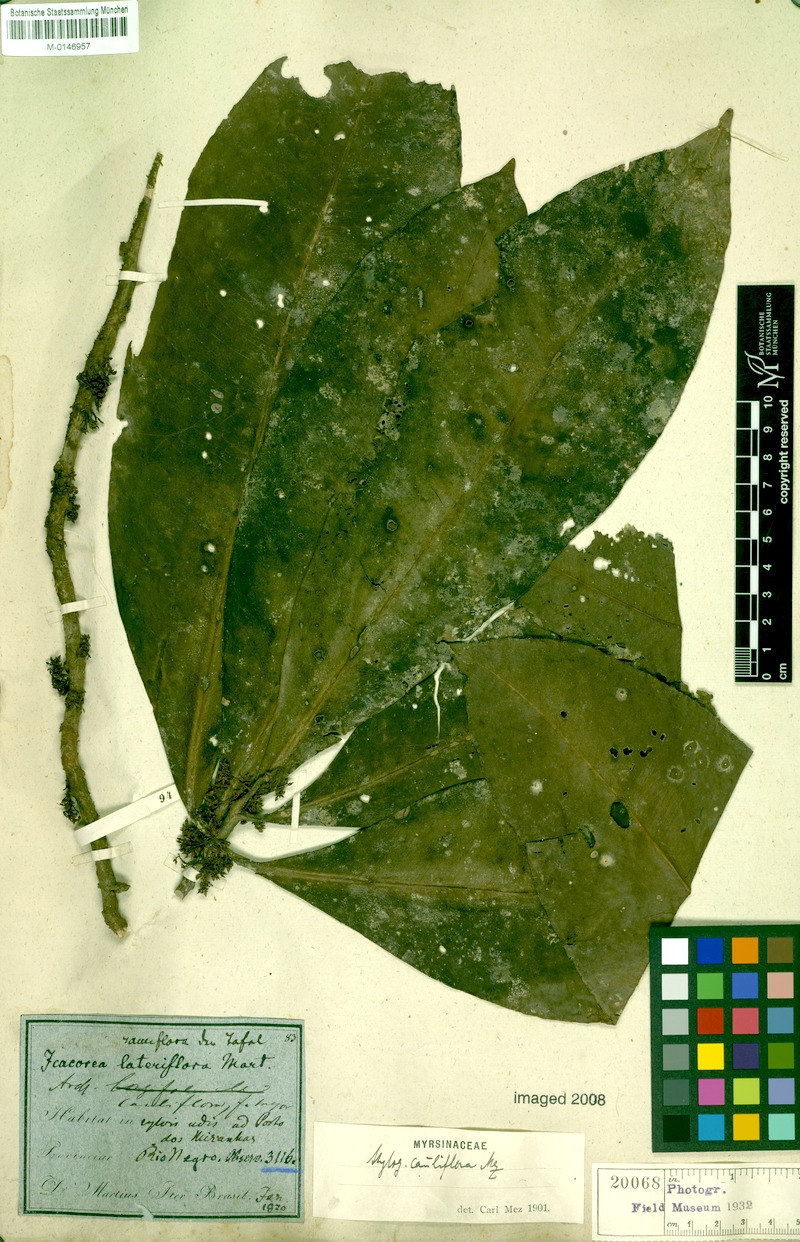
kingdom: Plantae
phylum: Tracheophyta
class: Magnoliopsida
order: Ericales
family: Primulaceae
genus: Stylogyne
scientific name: Stylogyne ardisioides
